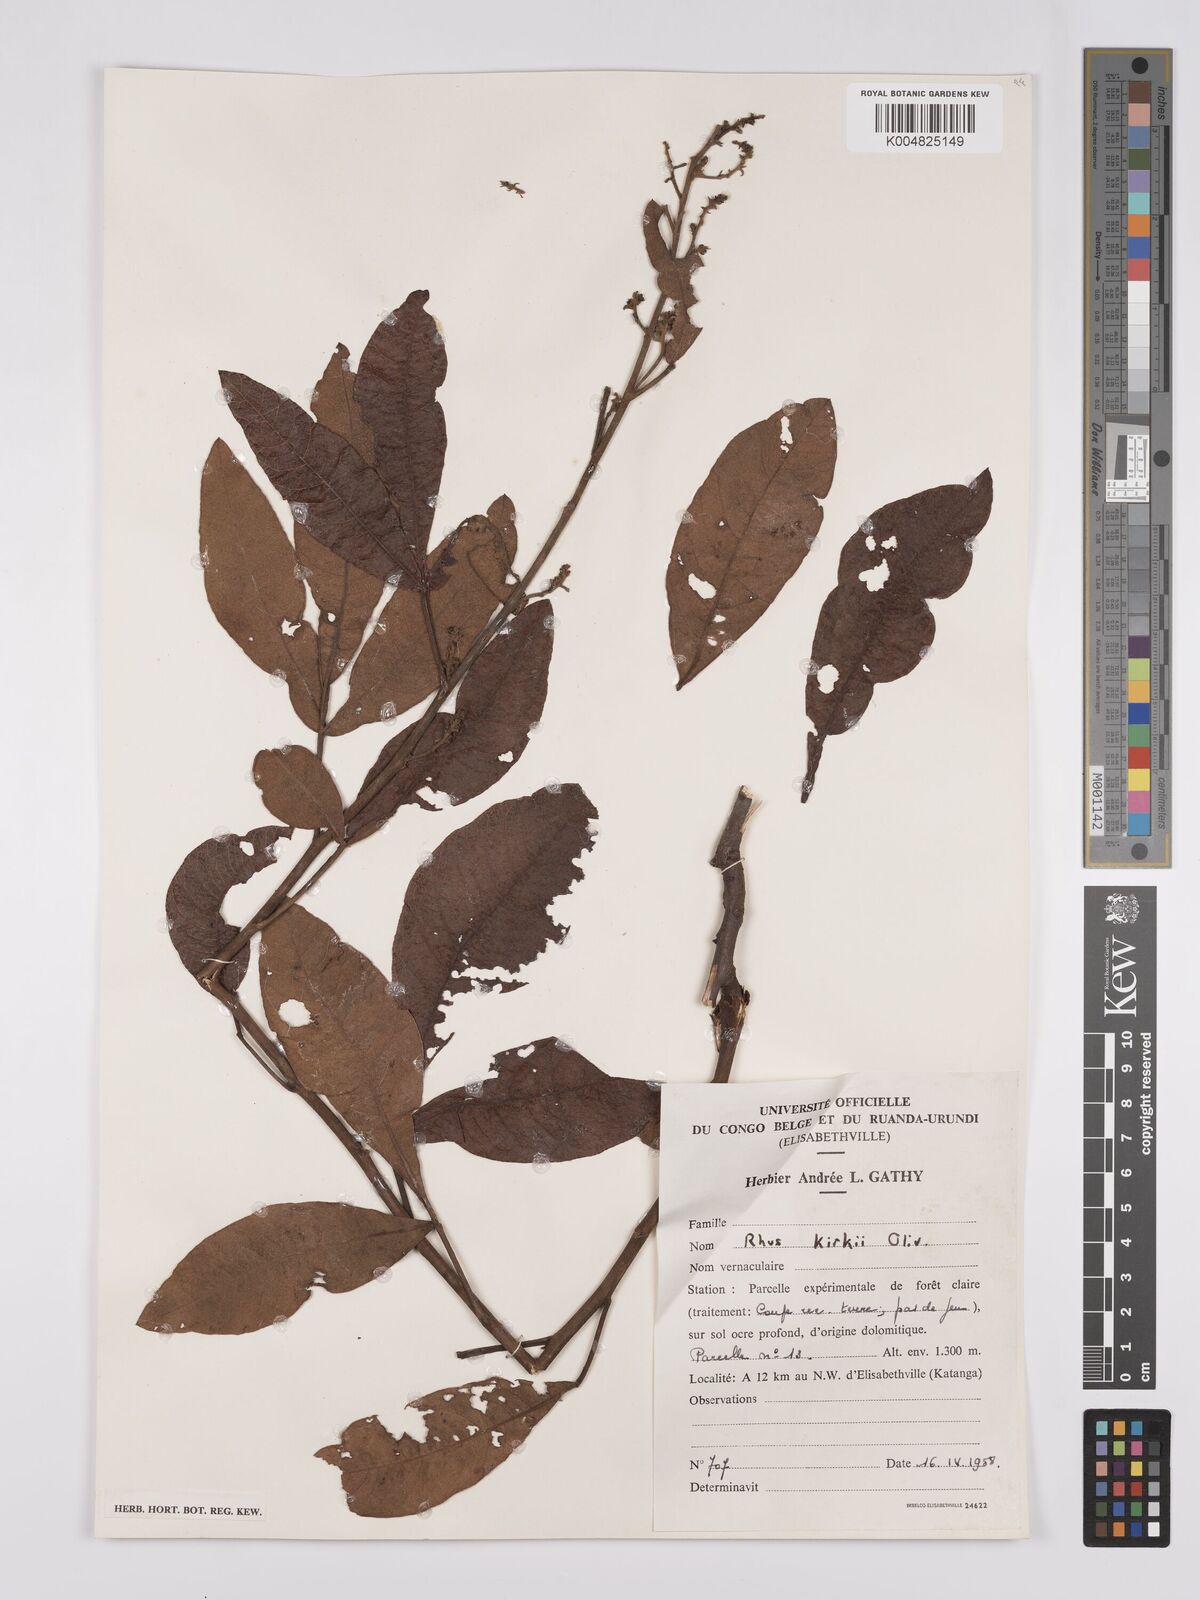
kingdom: Plantae
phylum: Tracheophyta
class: Magnoliopsida
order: Sapindales
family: Anacardiaceae
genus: Searsia
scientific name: Searsia kirkii
